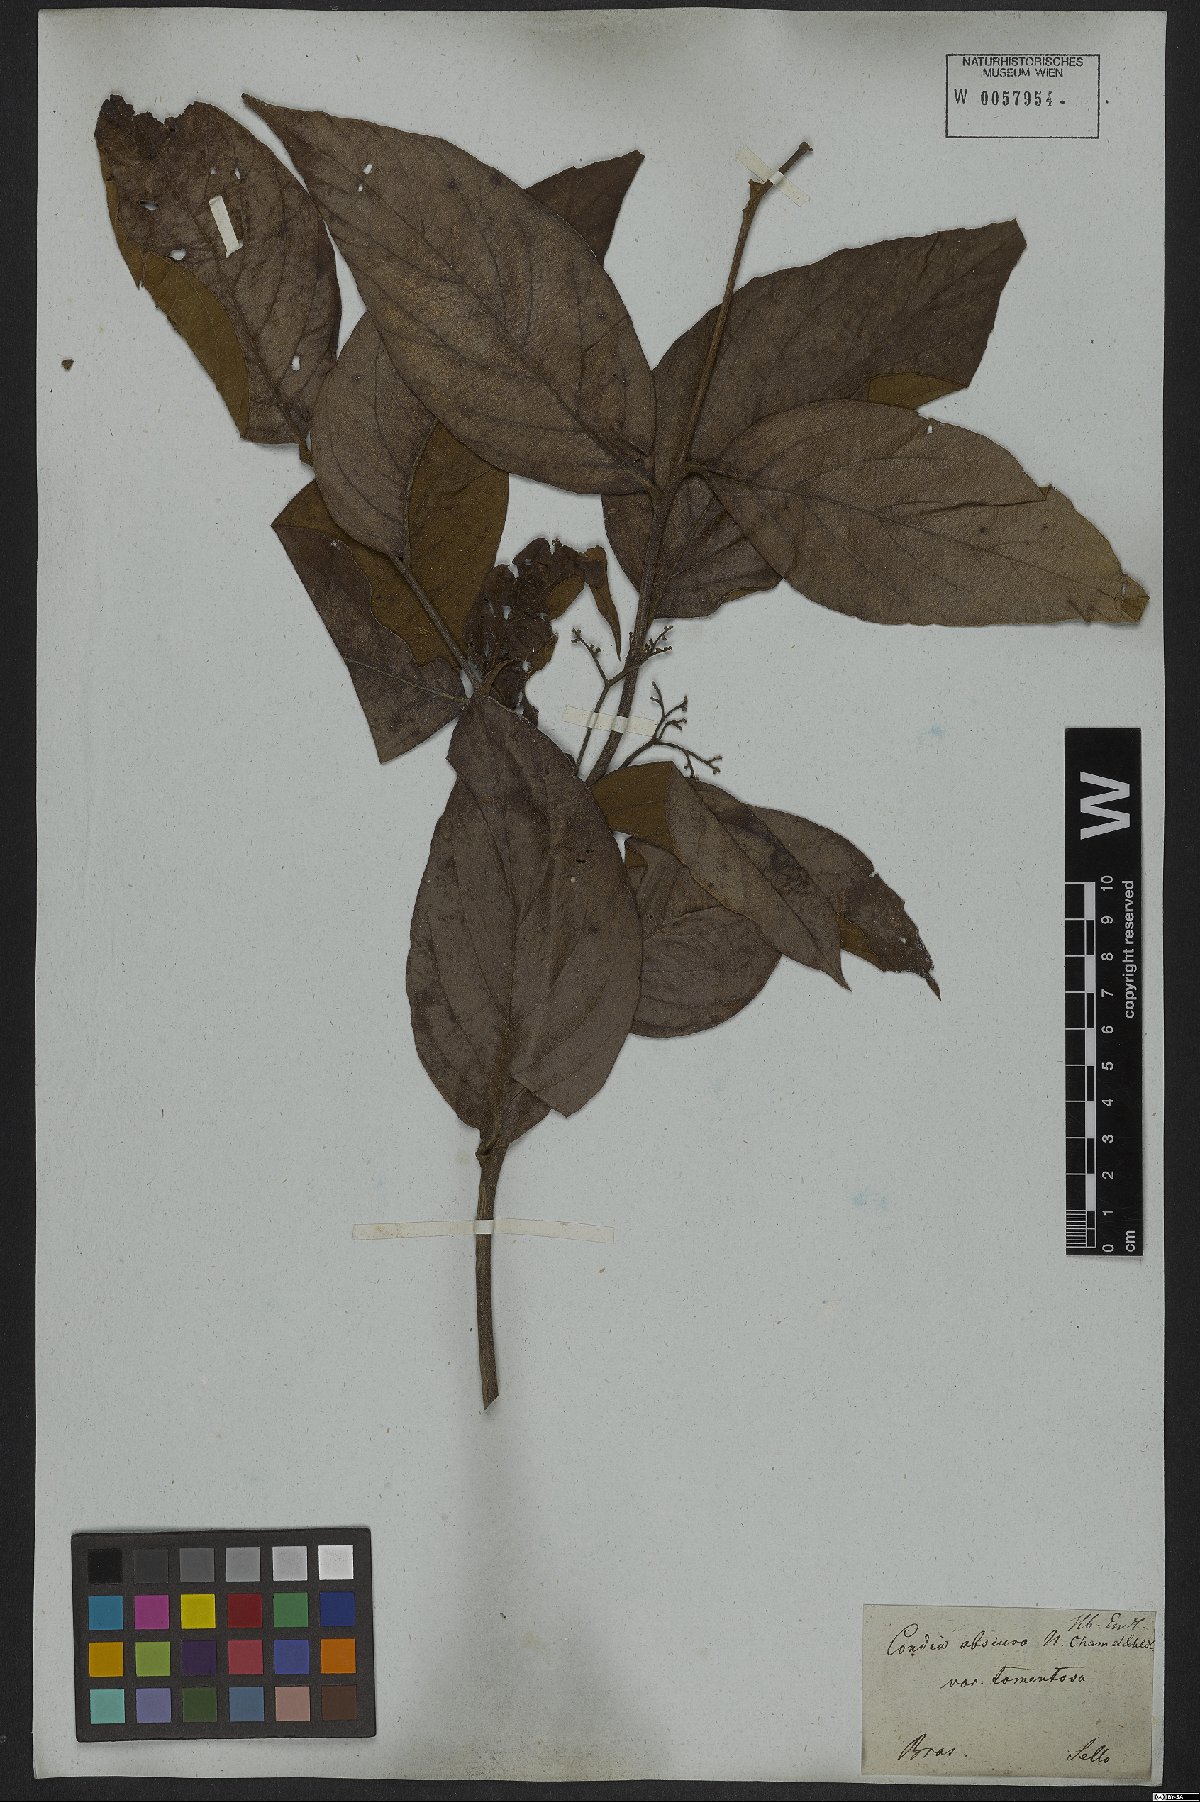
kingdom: Plantae
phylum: Tracheophyta
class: Magnoliopsida
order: Boraginales
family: Cordiaceae
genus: Cordia
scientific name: Cordia sellowiana
